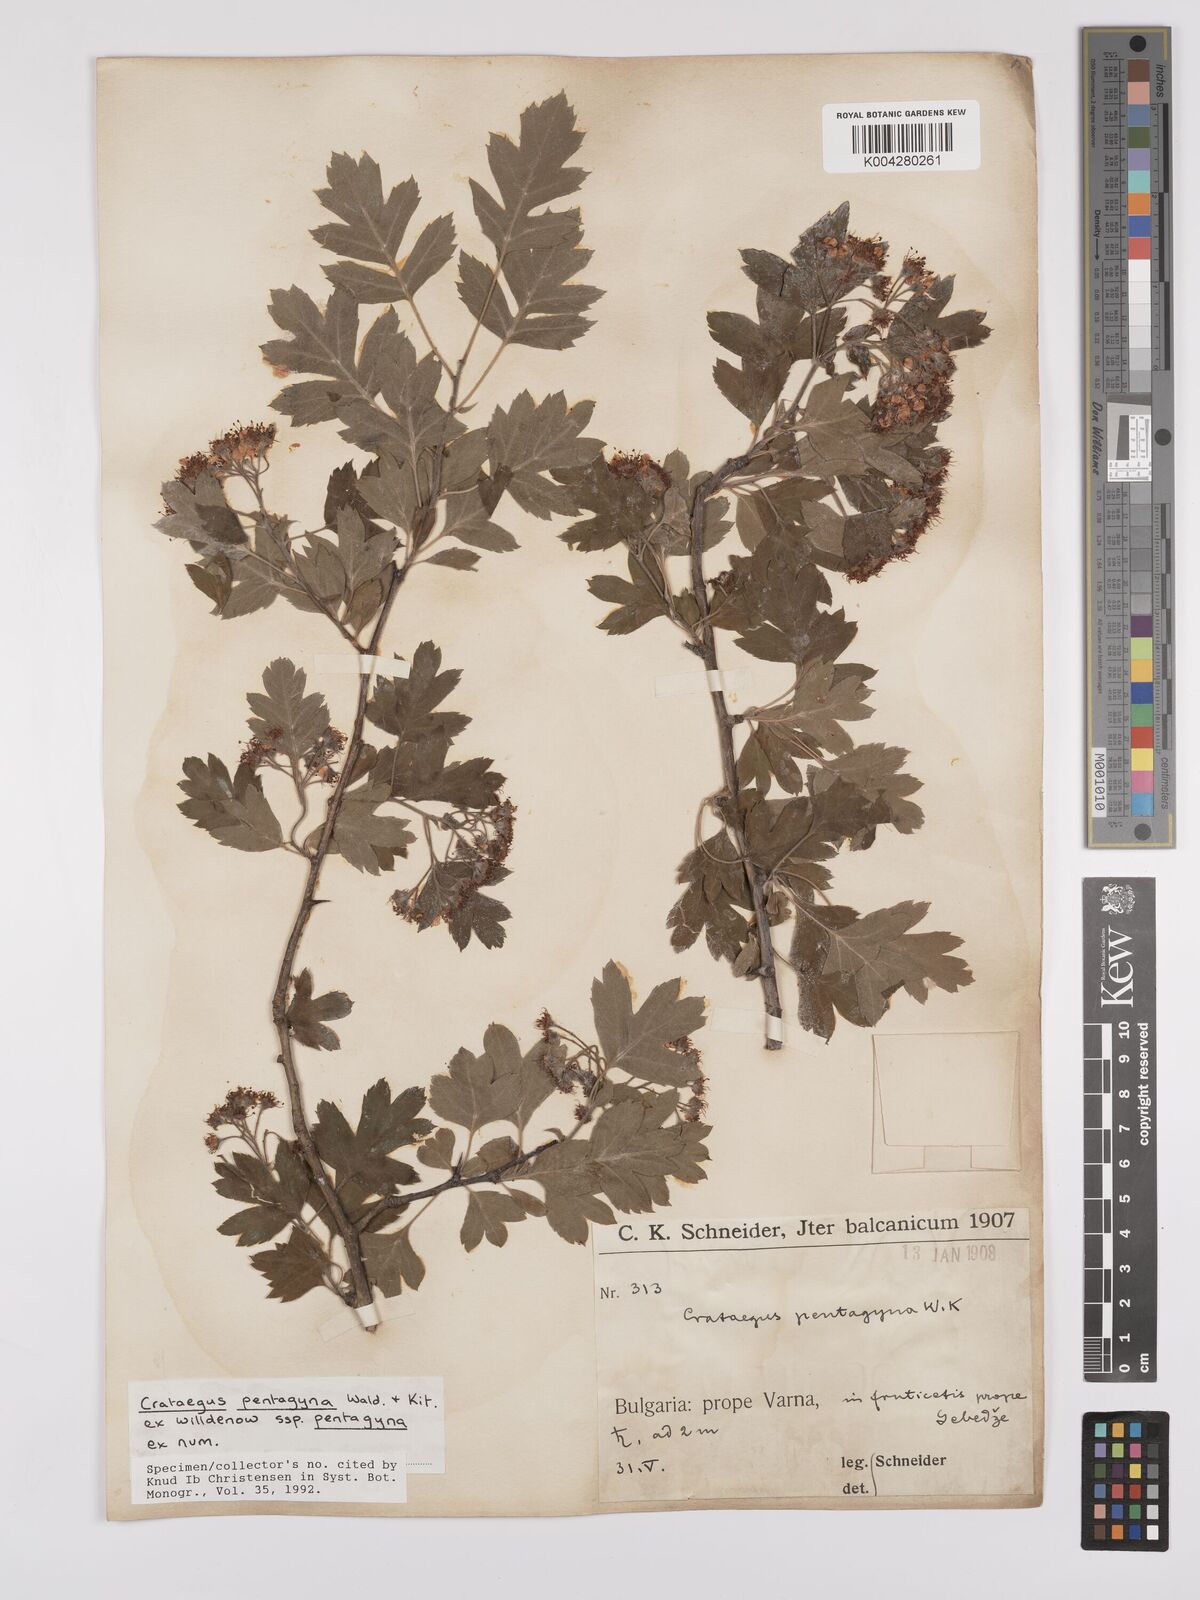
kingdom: Plantae
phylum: Tracheophyta
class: Magnoliopsida
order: Rosales
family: Rosaceae
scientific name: Rosaceae
